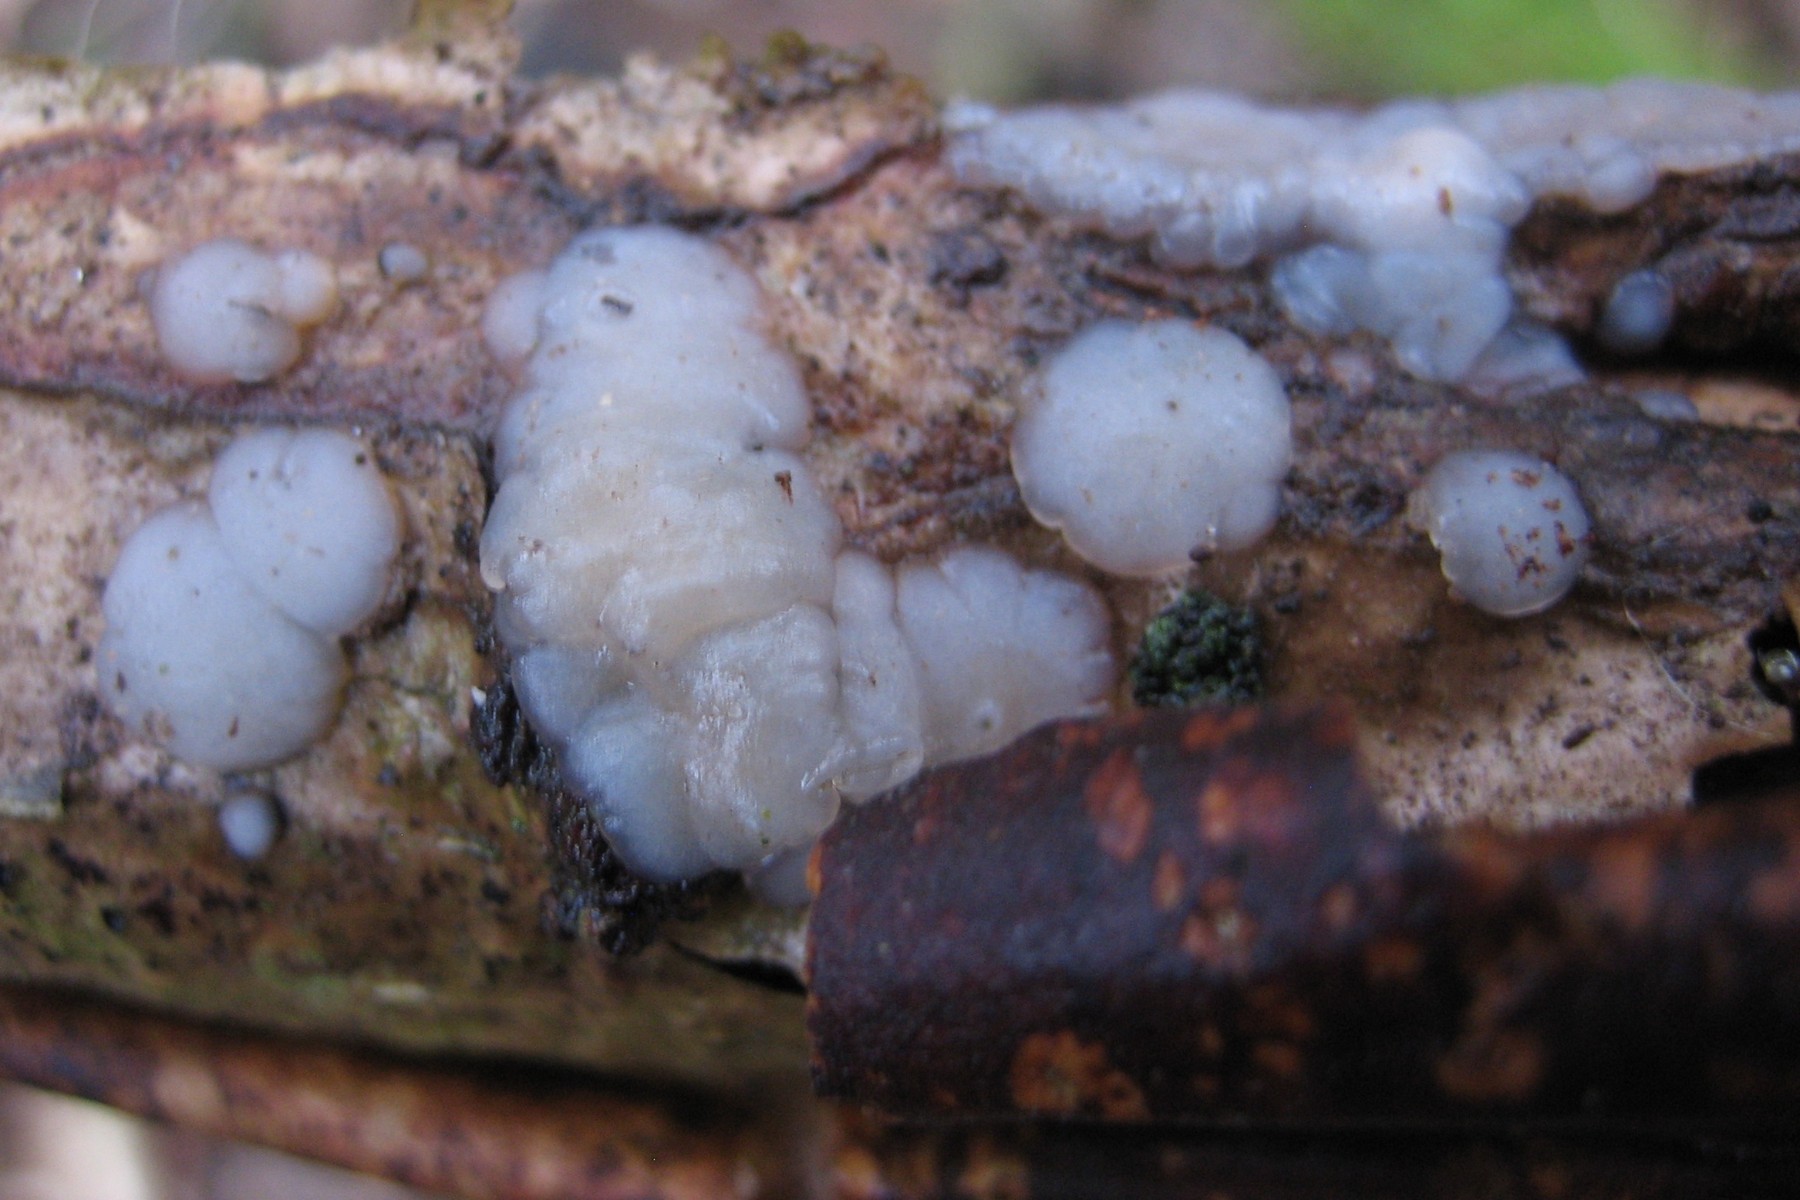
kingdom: Fungi
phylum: Basidiomycota
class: Agaricomycetes
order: Auriculariales
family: Auriculariaceae
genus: Exidia
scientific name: Exidia thuretiana
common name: hvidlig bævretop
